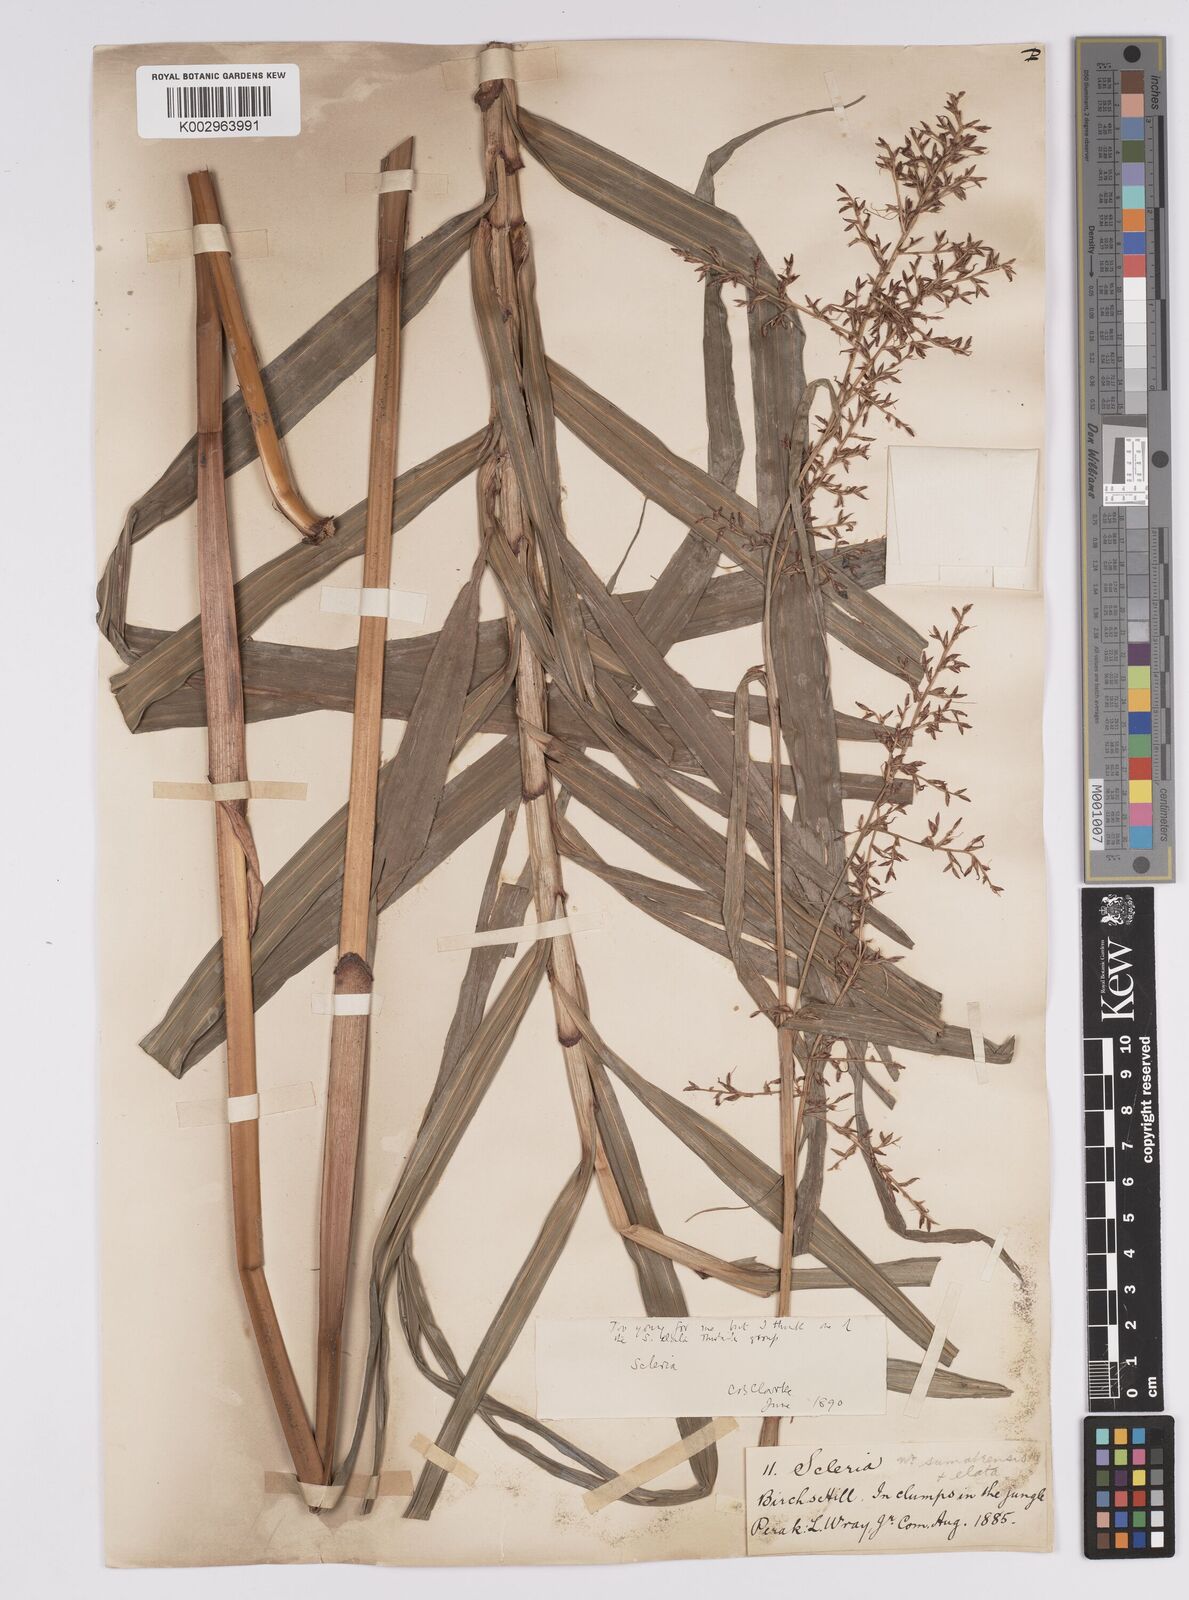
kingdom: Plantae
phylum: Tracheophyta
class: Liliopsida
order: Poales
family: Cyperaceae
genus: Scleria
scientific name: Scleria terrestris
